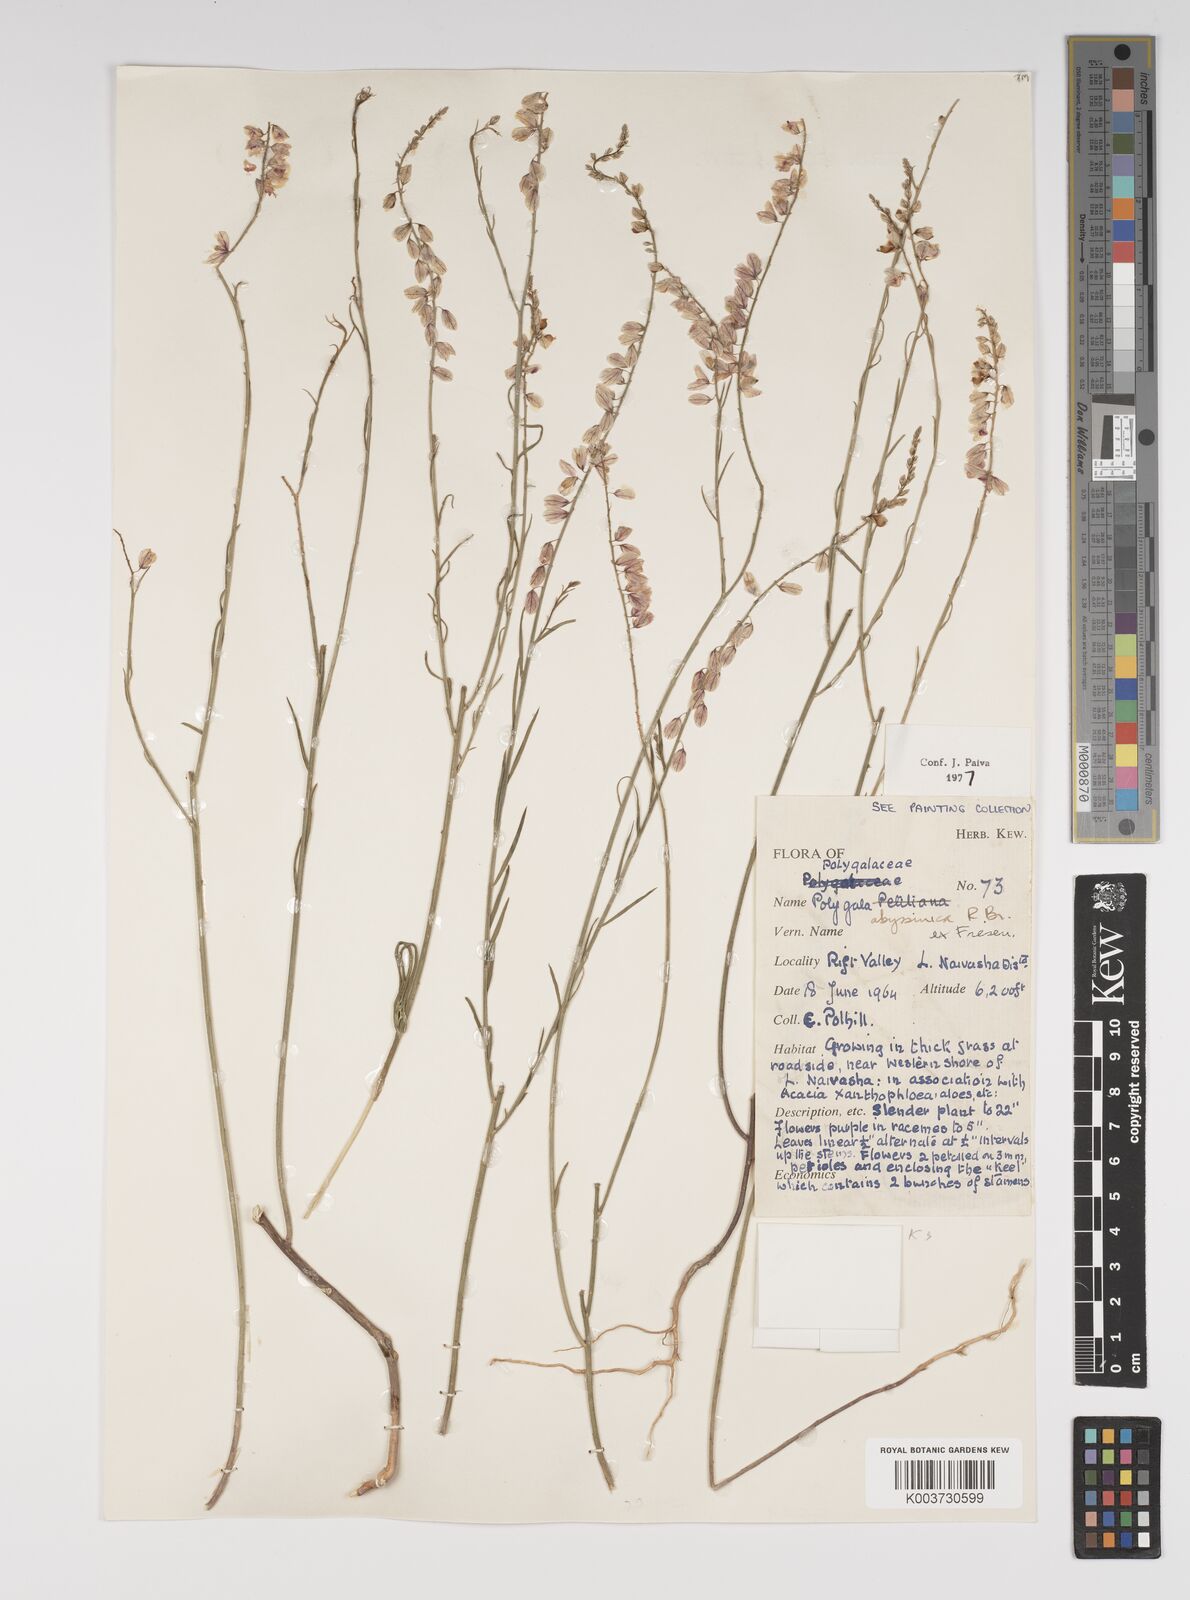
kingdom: Plantae
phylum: Tracheophyta
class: Magnoliopsida
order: Fabales
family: Polygalaceae
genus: Polygala
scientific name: Polygala abyssinica
